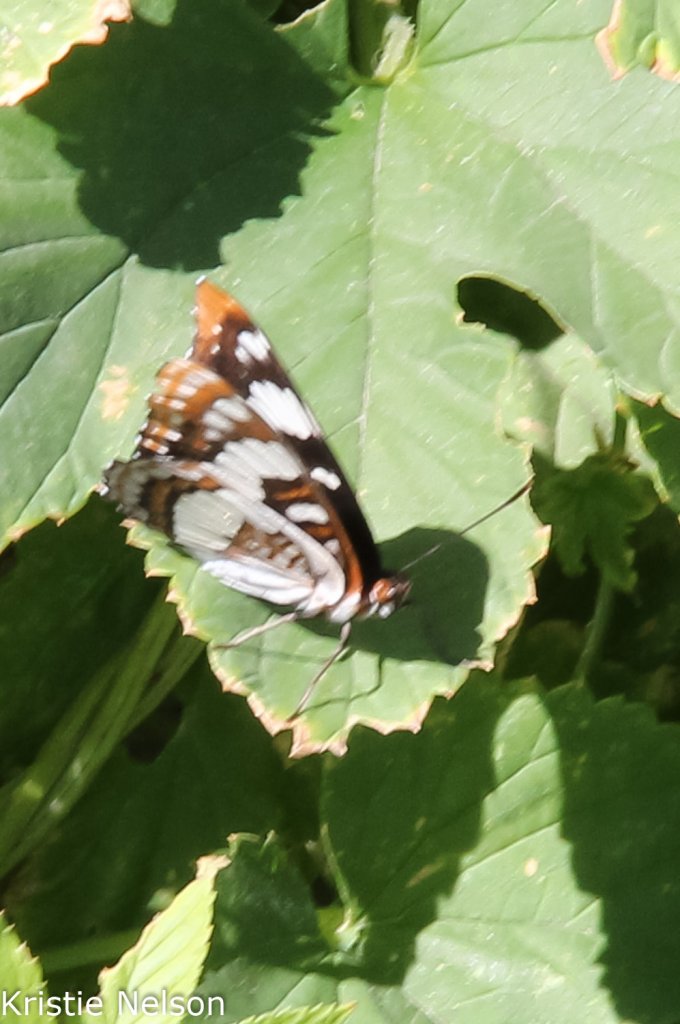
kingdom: Animalia
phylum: Arthropoda
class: Insecta
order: Lepidoptera
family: Nymphalidae
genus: Limenitis
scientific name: Limenitis weidemeyerii
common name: Weidemeyer's Admiral
